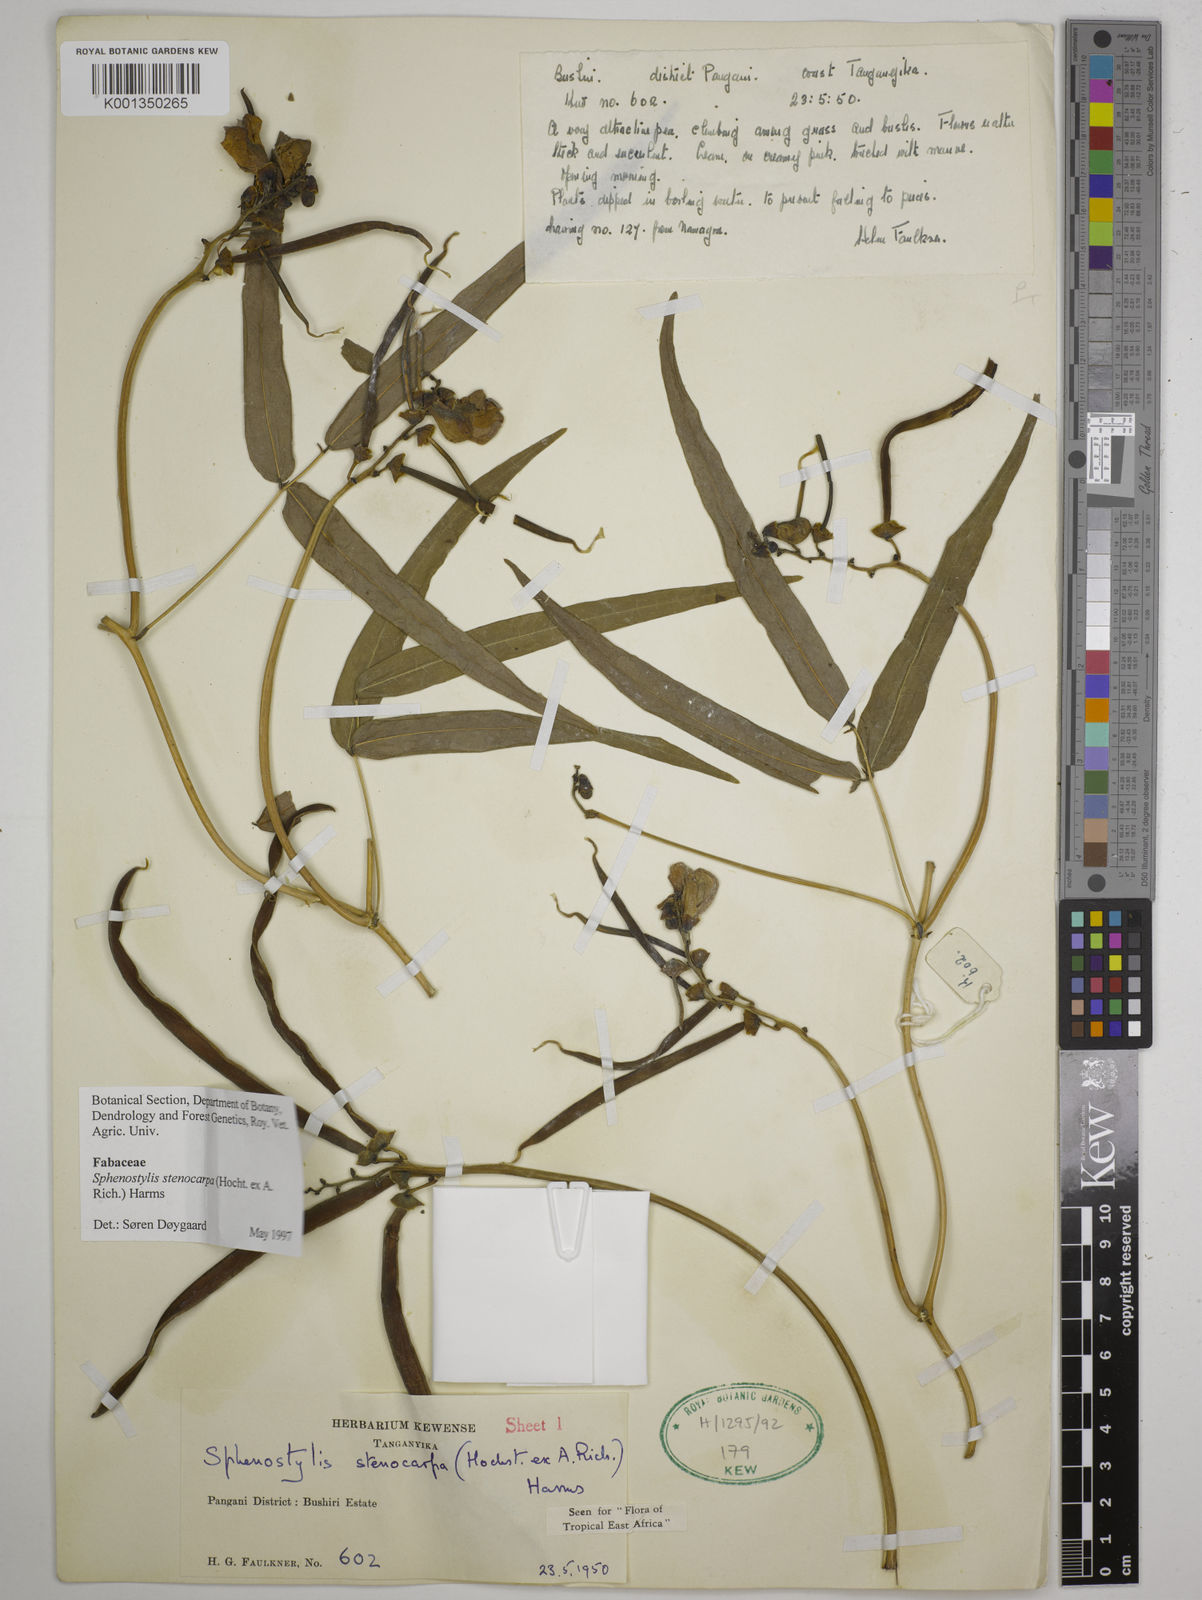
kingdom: Plantae
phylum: Tracheophyta
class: Magnoliopsida
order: Fabales
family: Fabaceae
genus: Sphenostylis
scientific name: Sphenostylis stenocarpa
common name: Yam-pea
